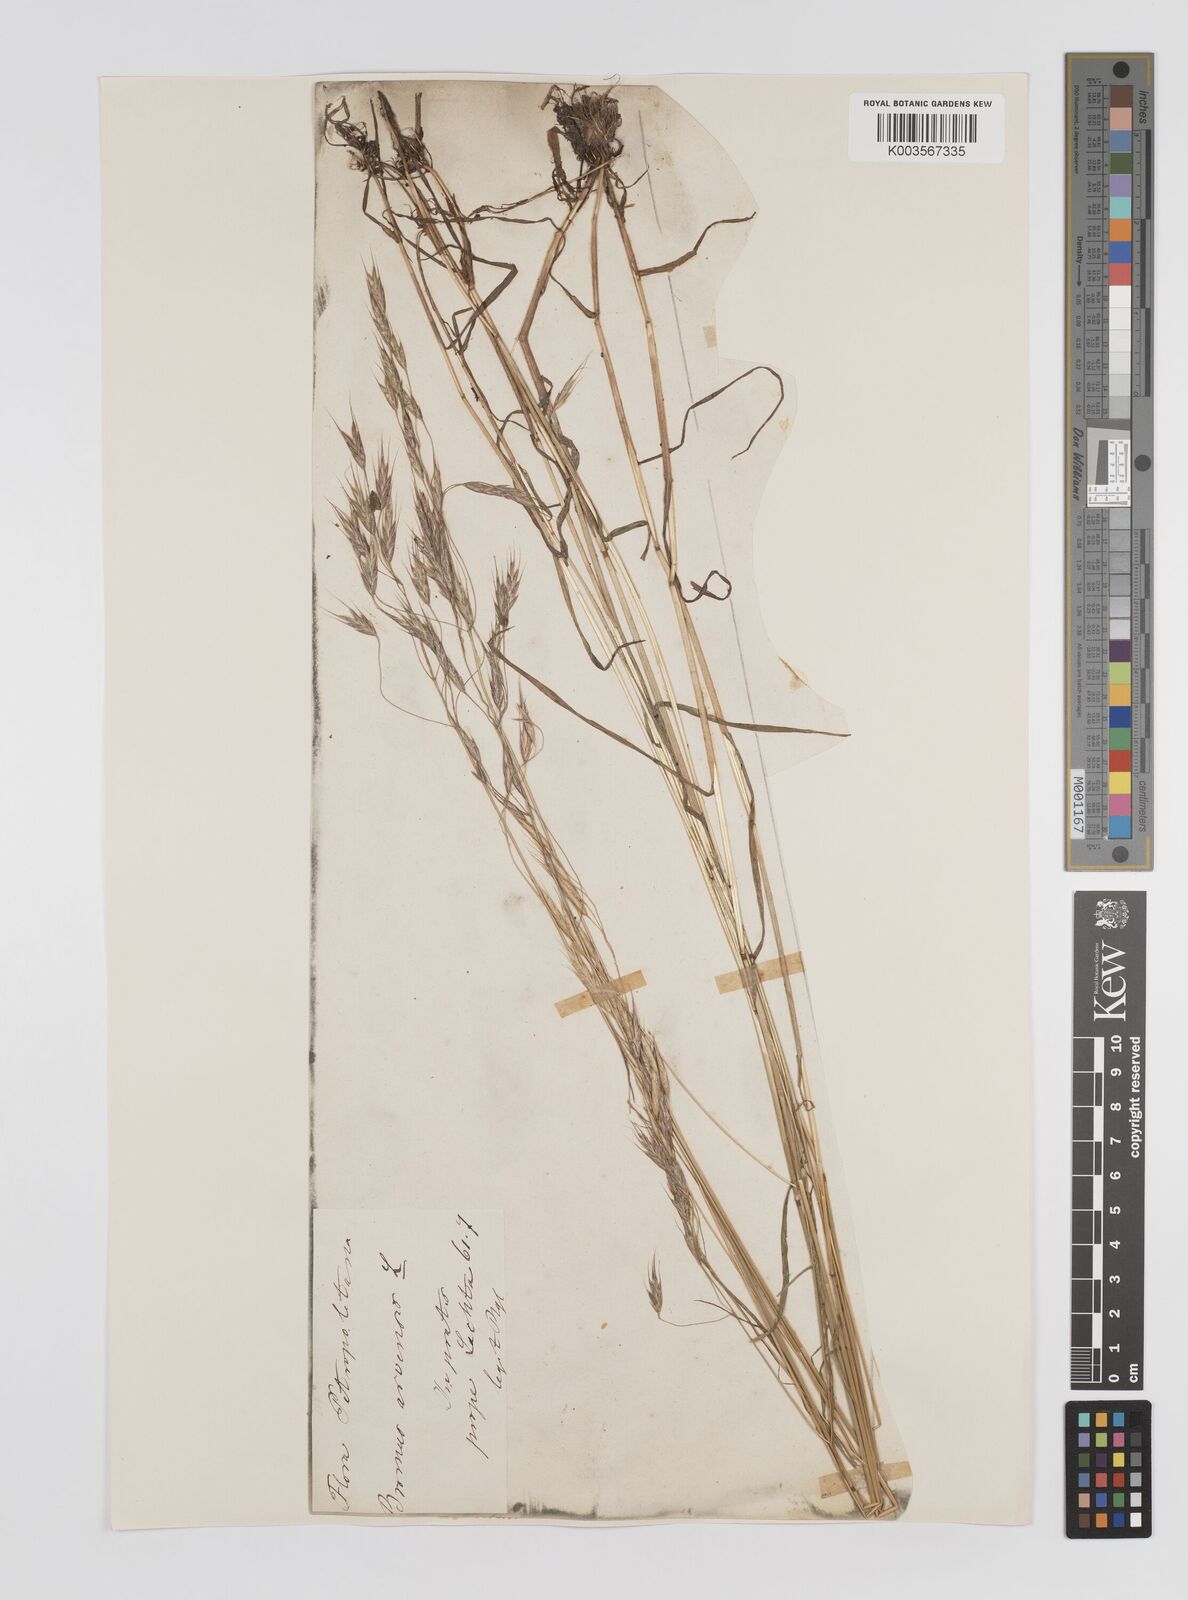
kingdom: Plantae
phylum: Tracheophyta
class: Liliopsida
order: Poales
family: Poaceae
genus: Bromus
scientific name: Bromus erectus
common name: Erect brome
